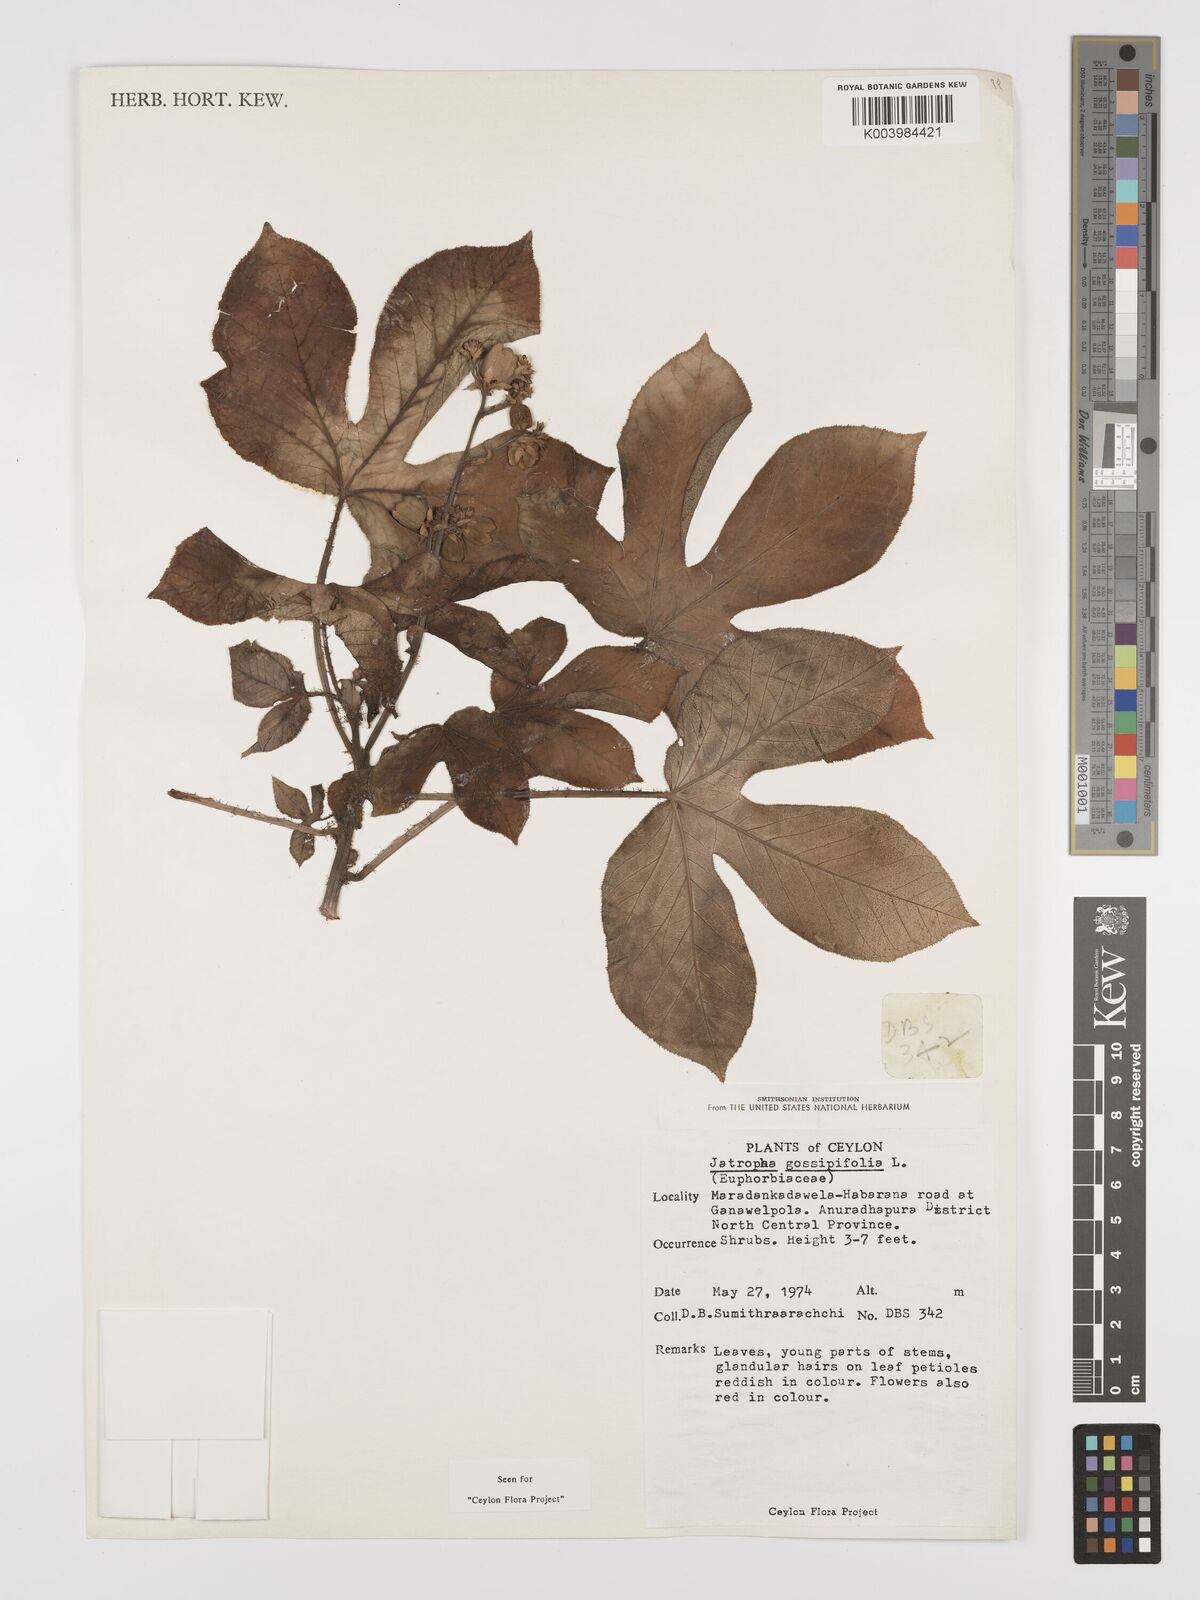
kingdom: Plantae
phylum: Tracheophyta
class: Magnoliopsida
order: Malpighiales
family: Euphorbiaceae
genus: Jatropha
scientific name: Jatropha gossypiifolia
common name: Bellyache bush
